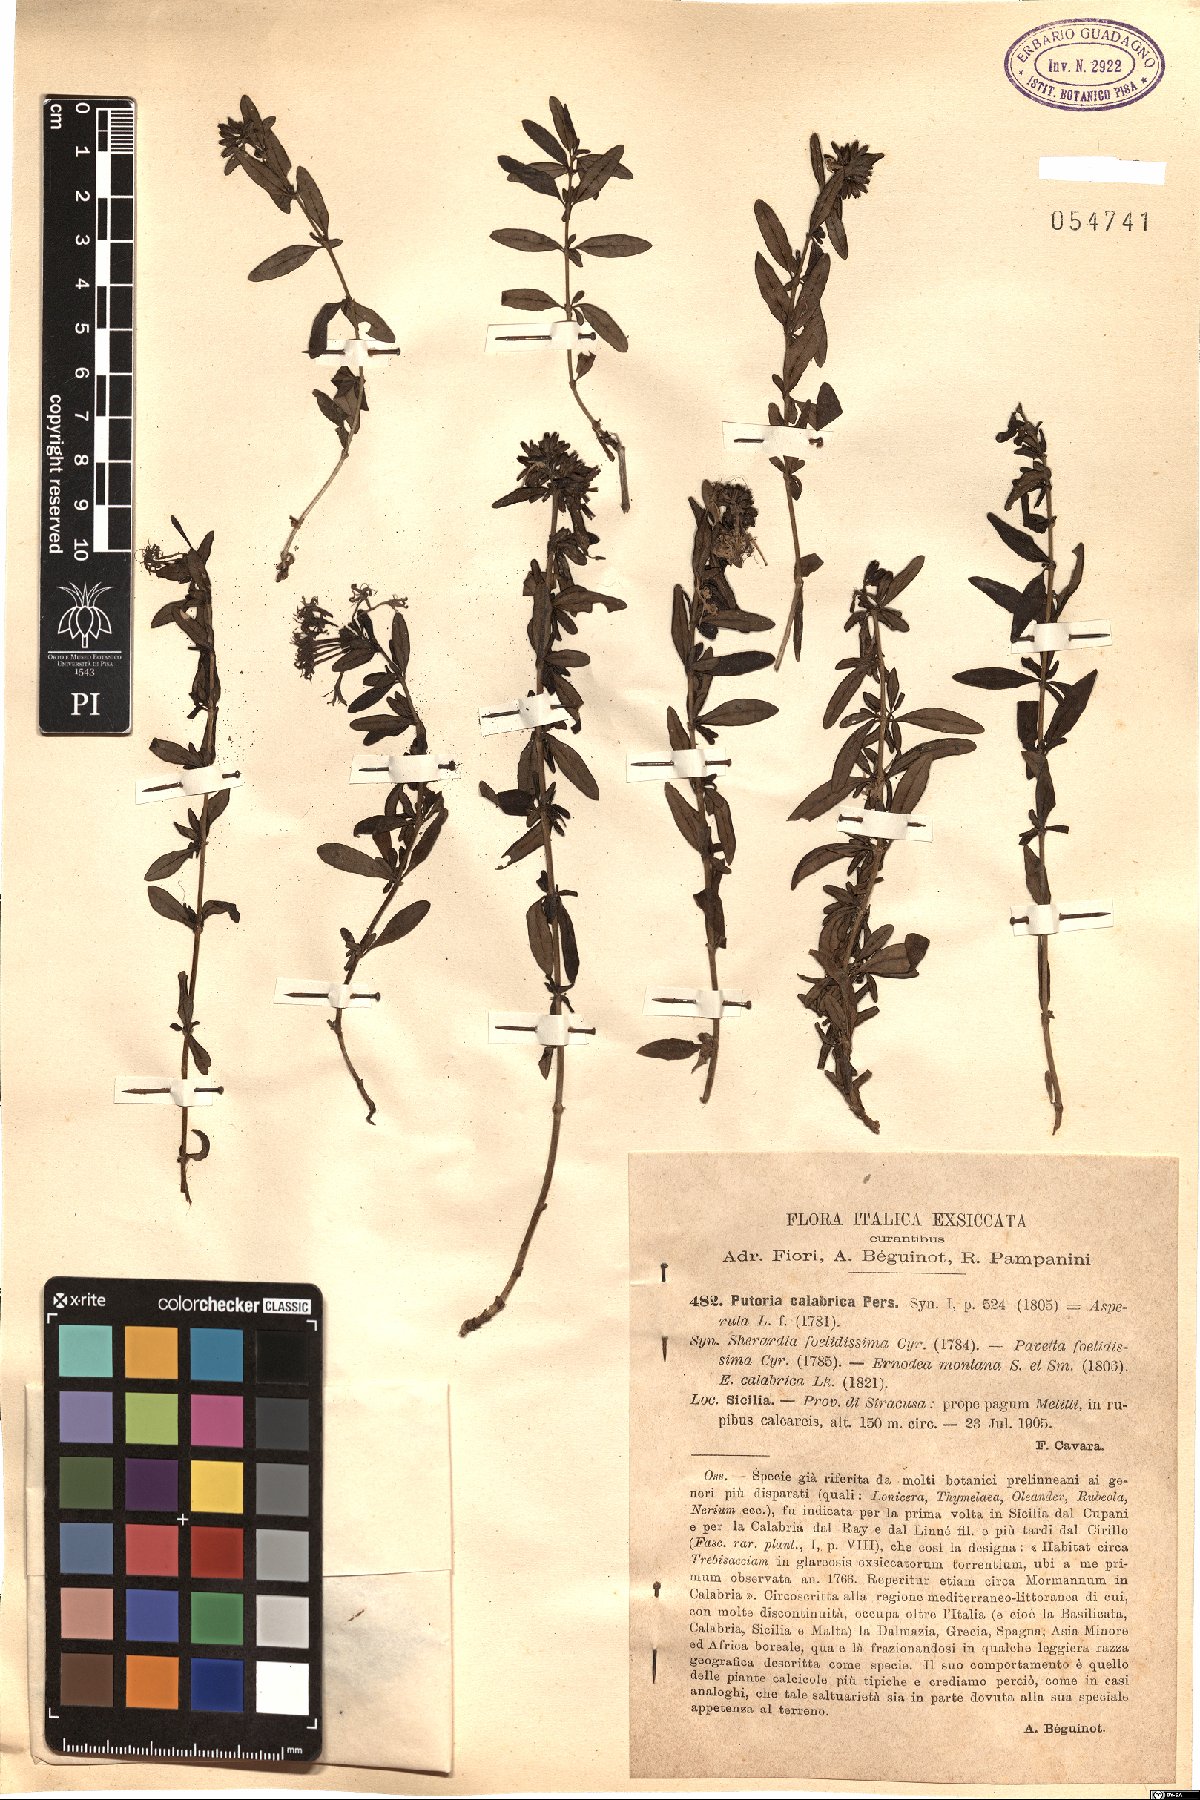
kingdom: Plantae
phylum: Tracheophyta
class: Magnoliopsida
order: Gentianales
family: Rubiaceae
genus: Plocama
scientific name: Plocama calabrica
